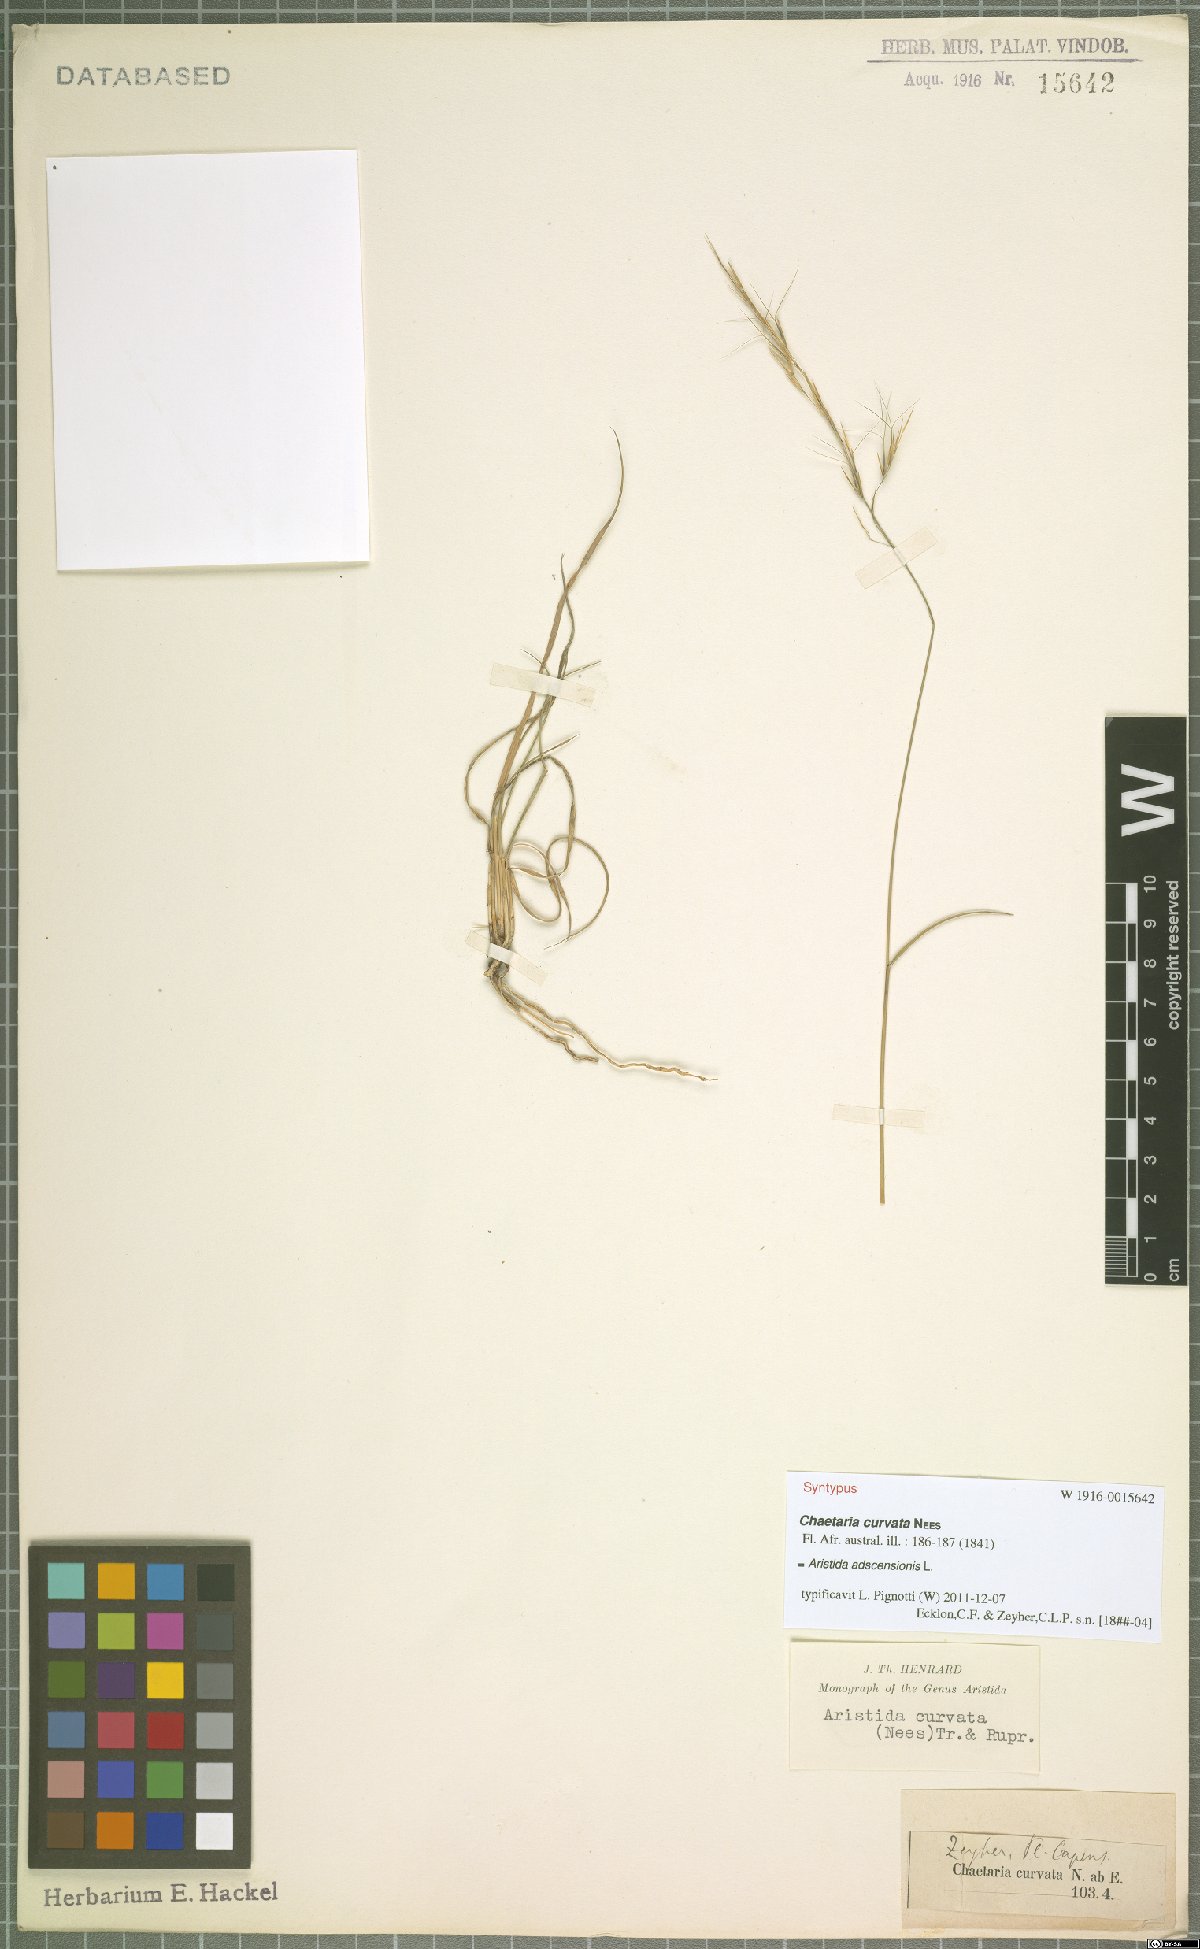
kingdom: Plantae
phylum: Tracheophyta
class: Liliopsida
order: Poales
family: Poaceae
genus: Aristida
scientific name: Aristida adscensionis
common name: Sixweeks threeawn
